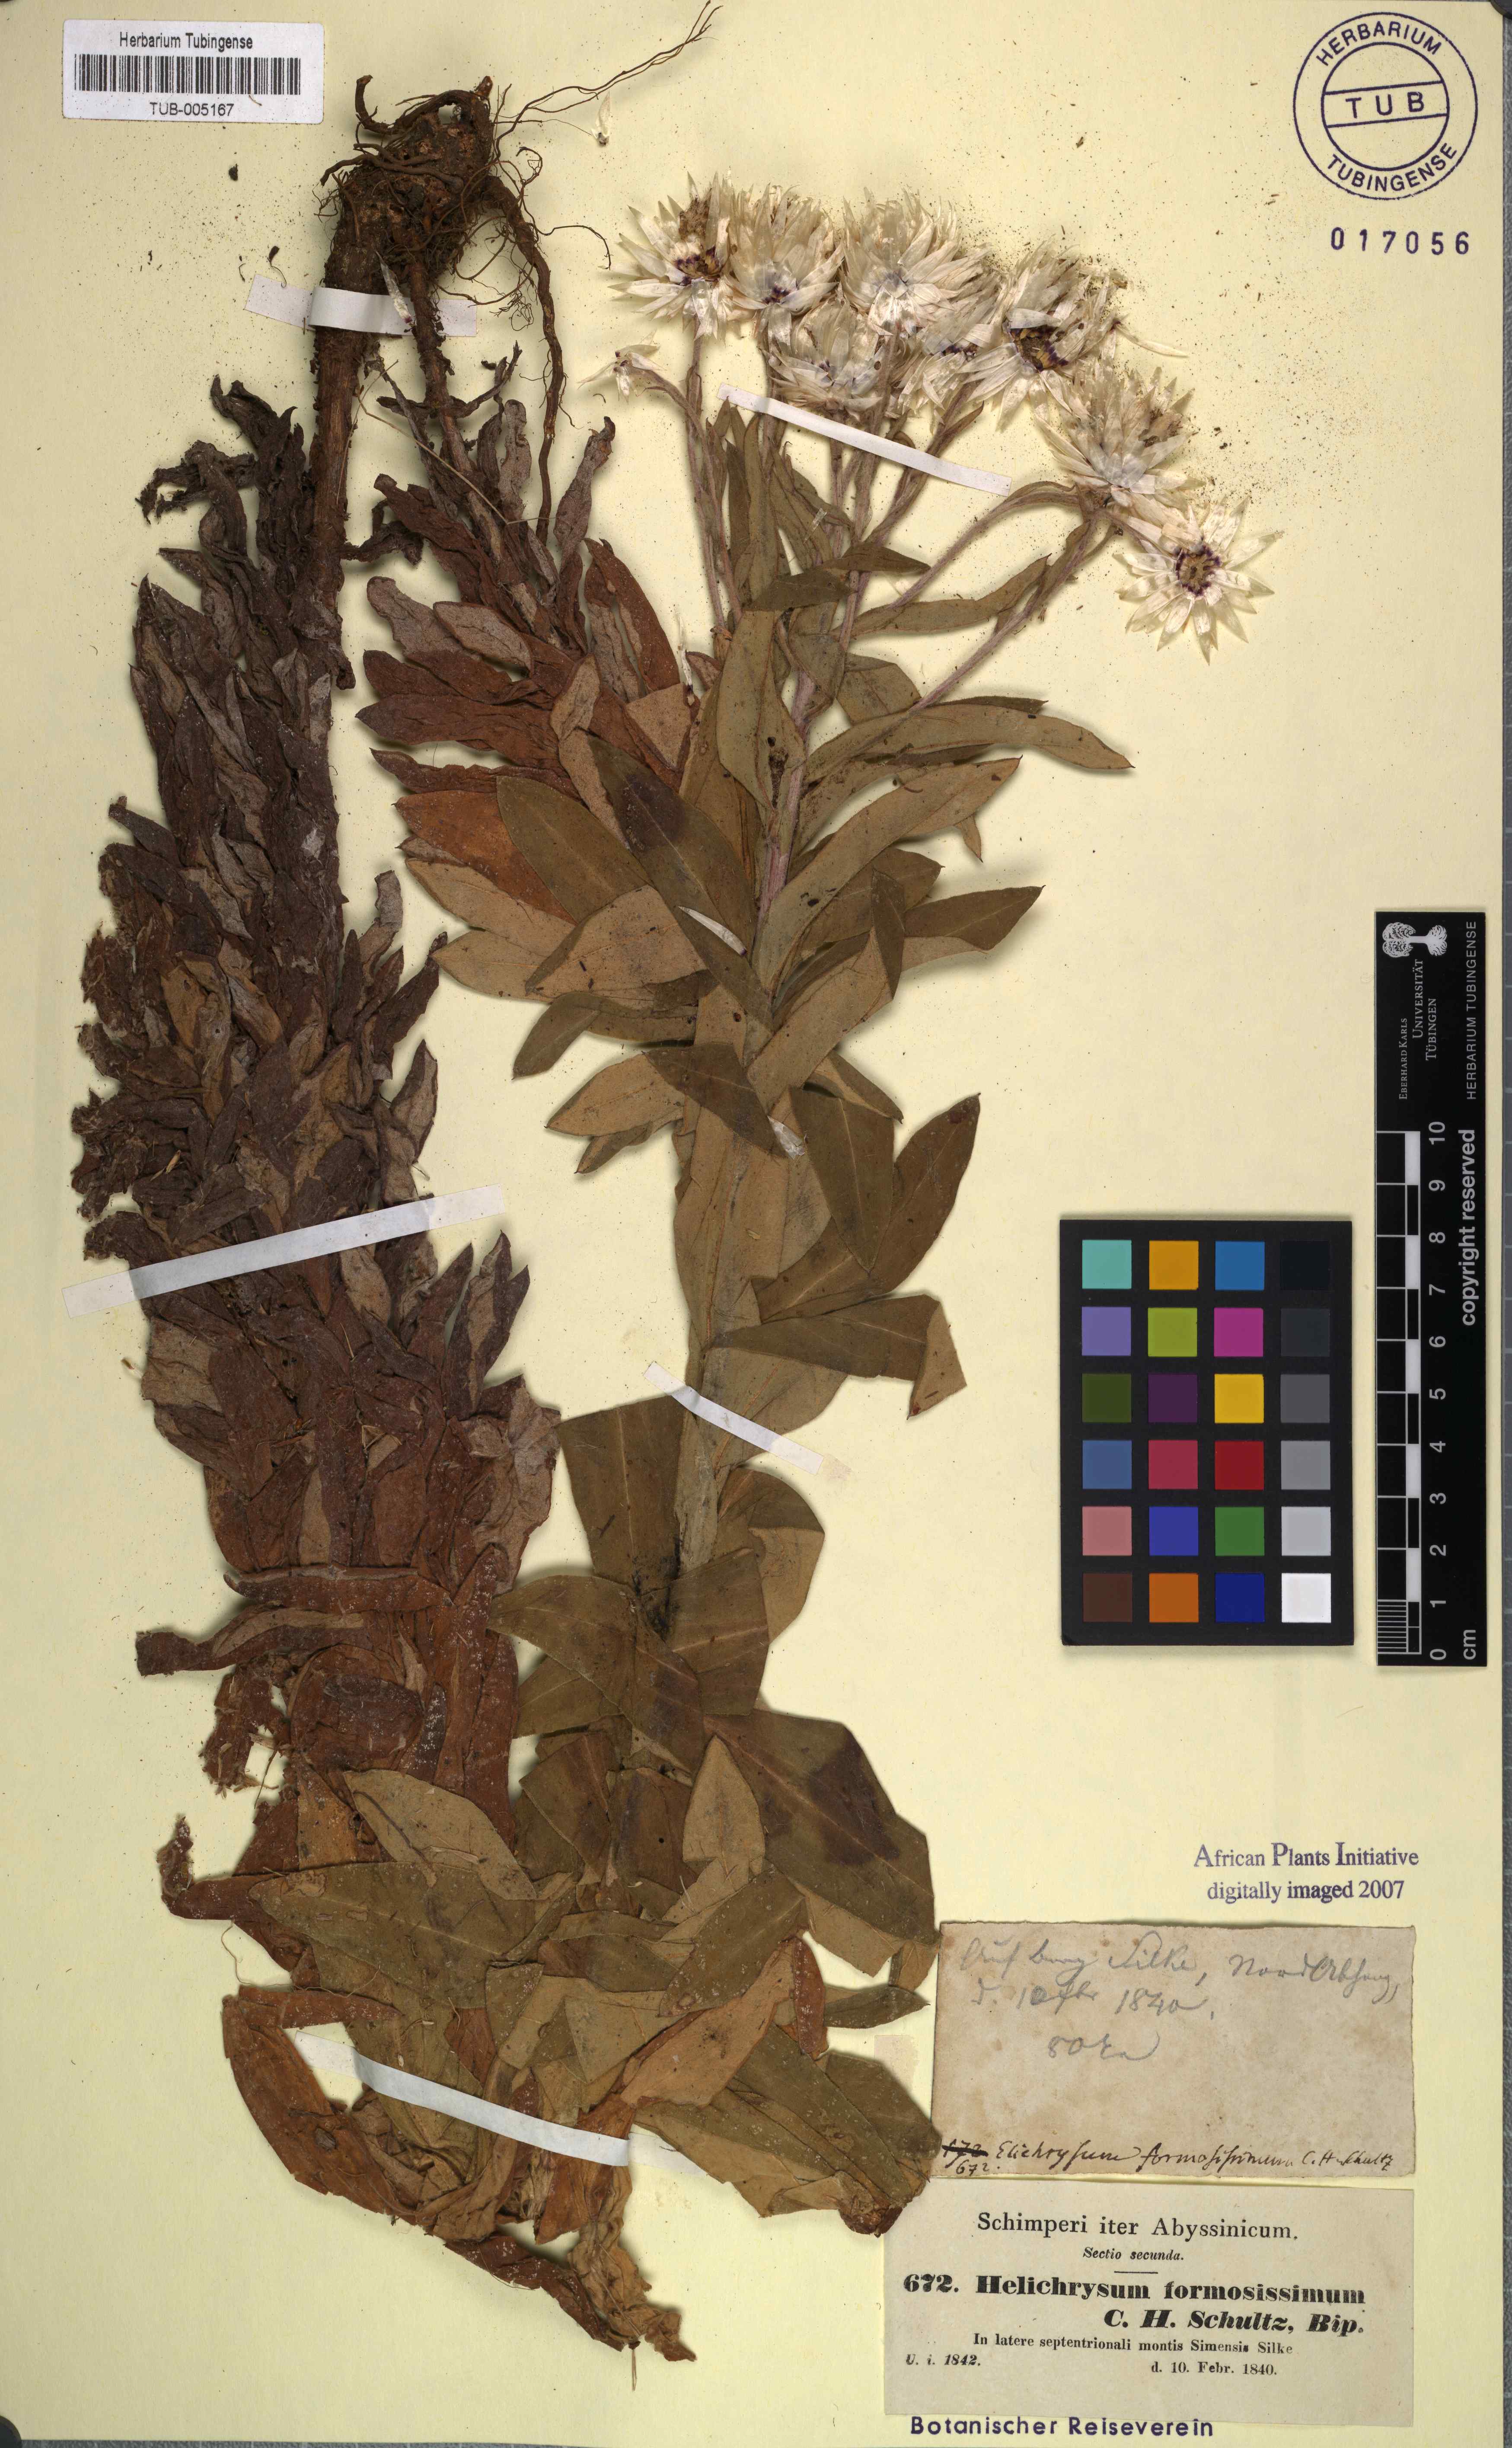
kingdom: Plantae
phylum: Tracheophyta
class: Magnoliopsida
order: Asterales
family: Asteraceae
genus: Helichrysum
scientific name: Helichrysum elegantissimum
